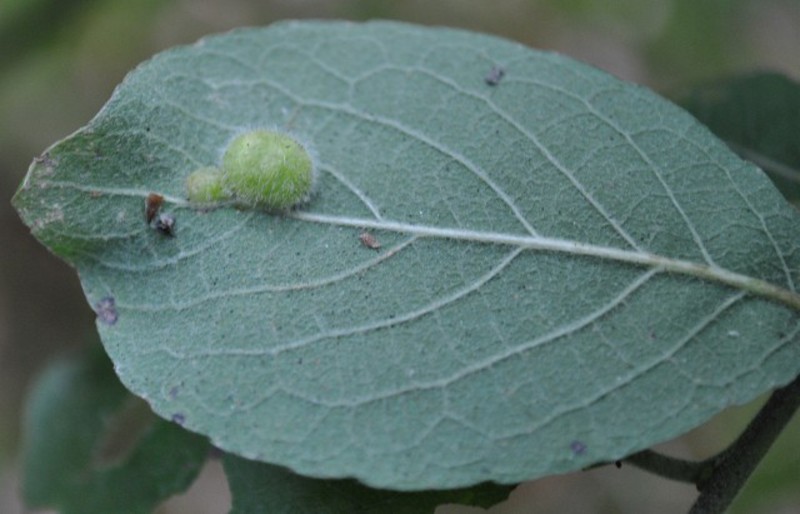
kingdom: Animalia
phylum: Arthropoda
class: Insecta
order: Hymenoptera
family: Tenthredinidae
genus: Pontania
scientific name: Pontania pedunculi
